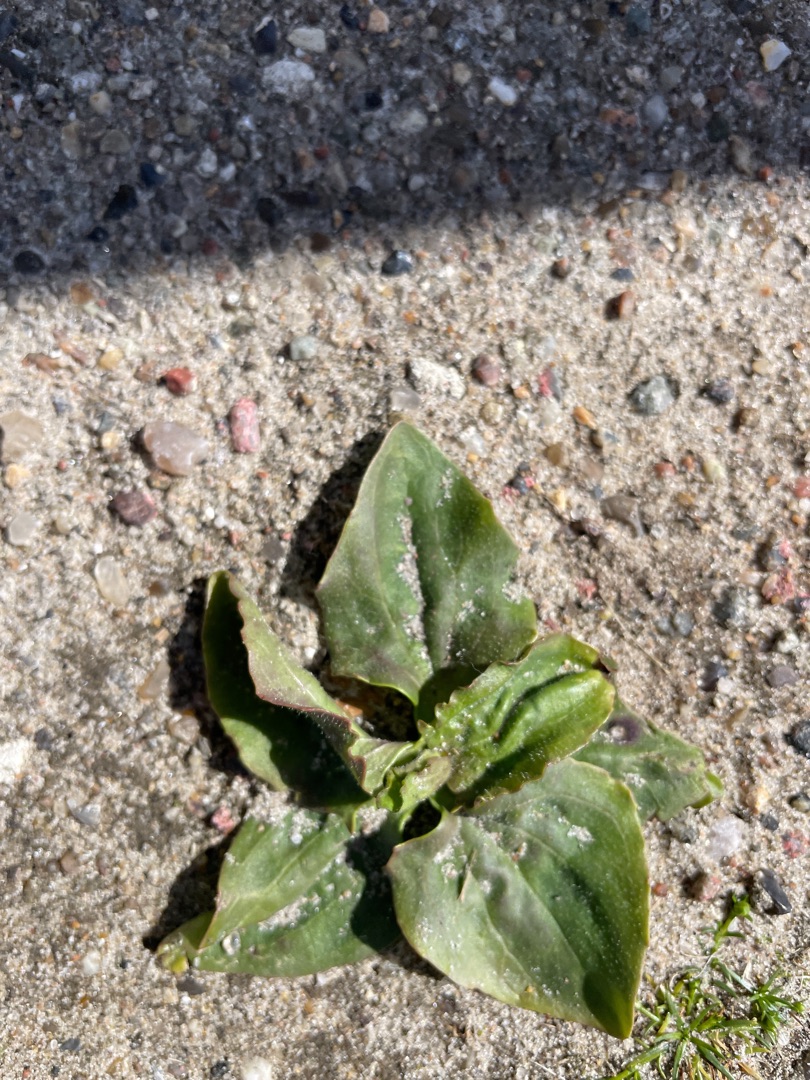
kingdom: Plantae
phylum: Tracheophyta
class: Magnoliopsida
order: Lamiales
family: Plantaginaceae
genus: Plantago
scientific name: Plantago major
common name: Glat vejbred
